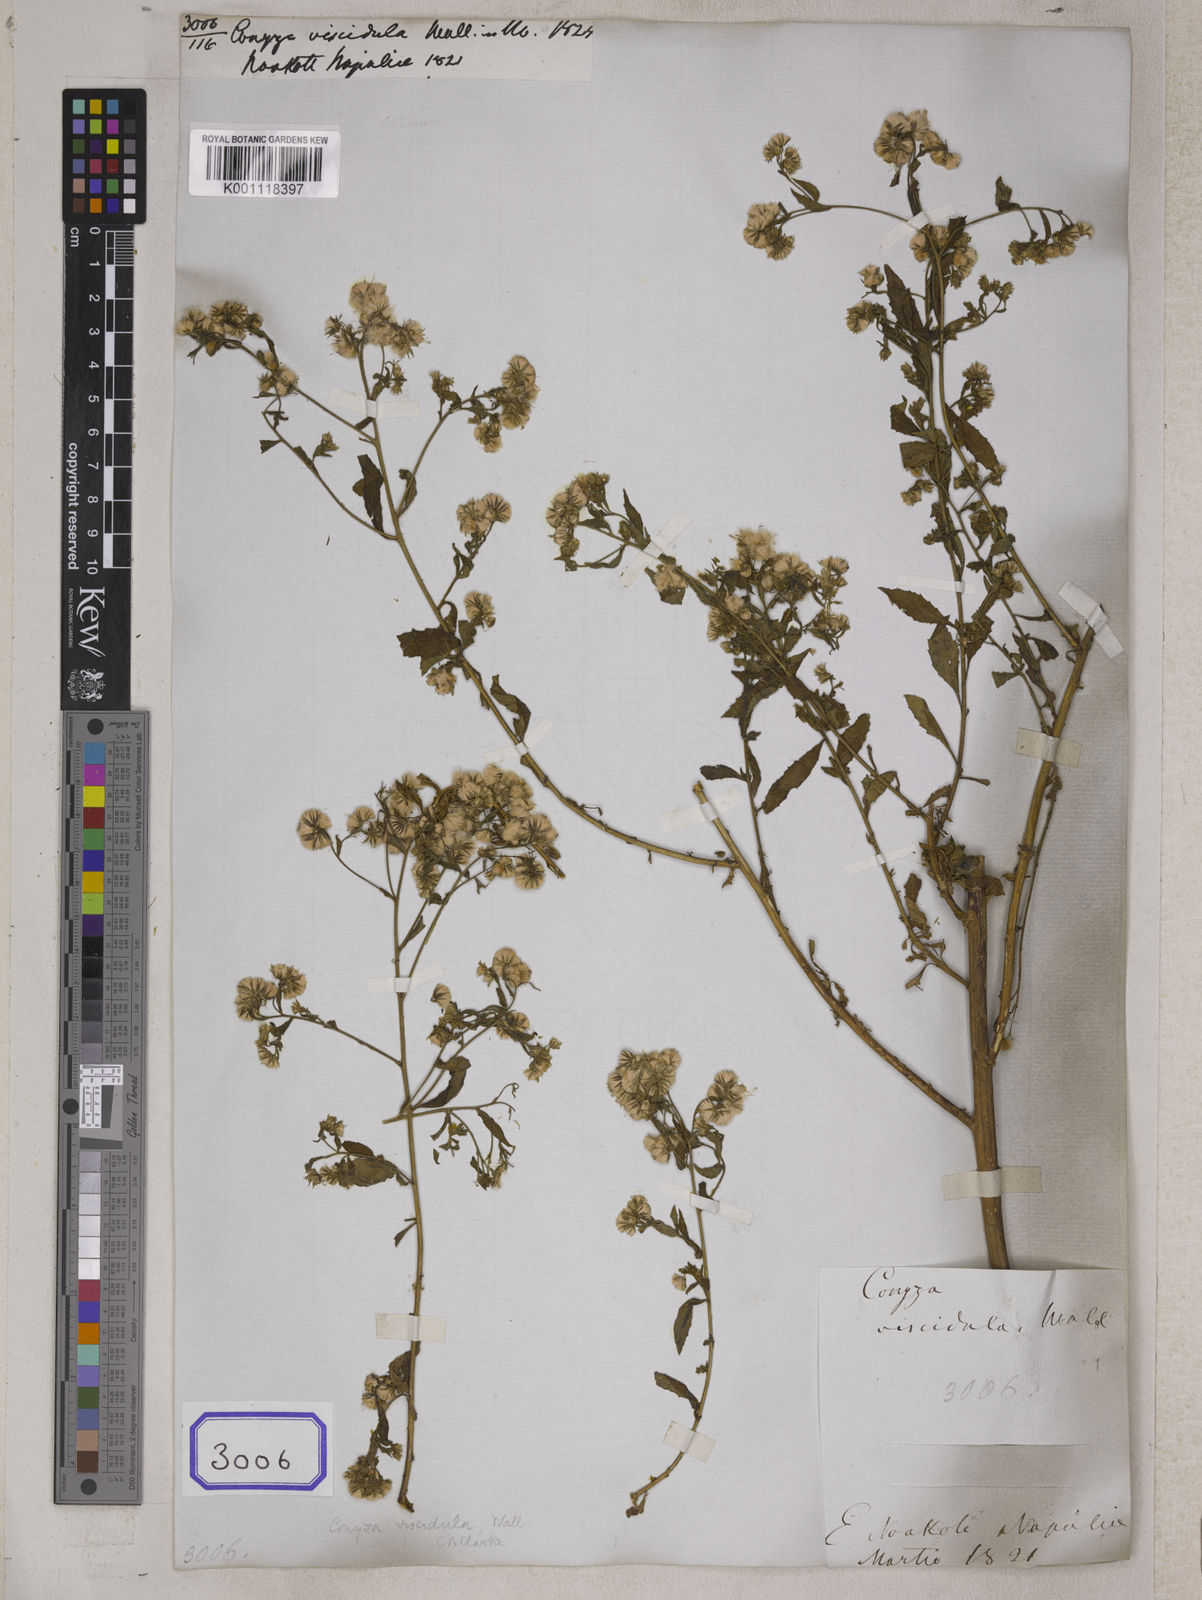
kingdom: Plantae
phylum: Tracheophyta
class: Magnoliopsida
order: Asterales
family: Asteraceae
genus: Conyza
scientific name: Conyza
